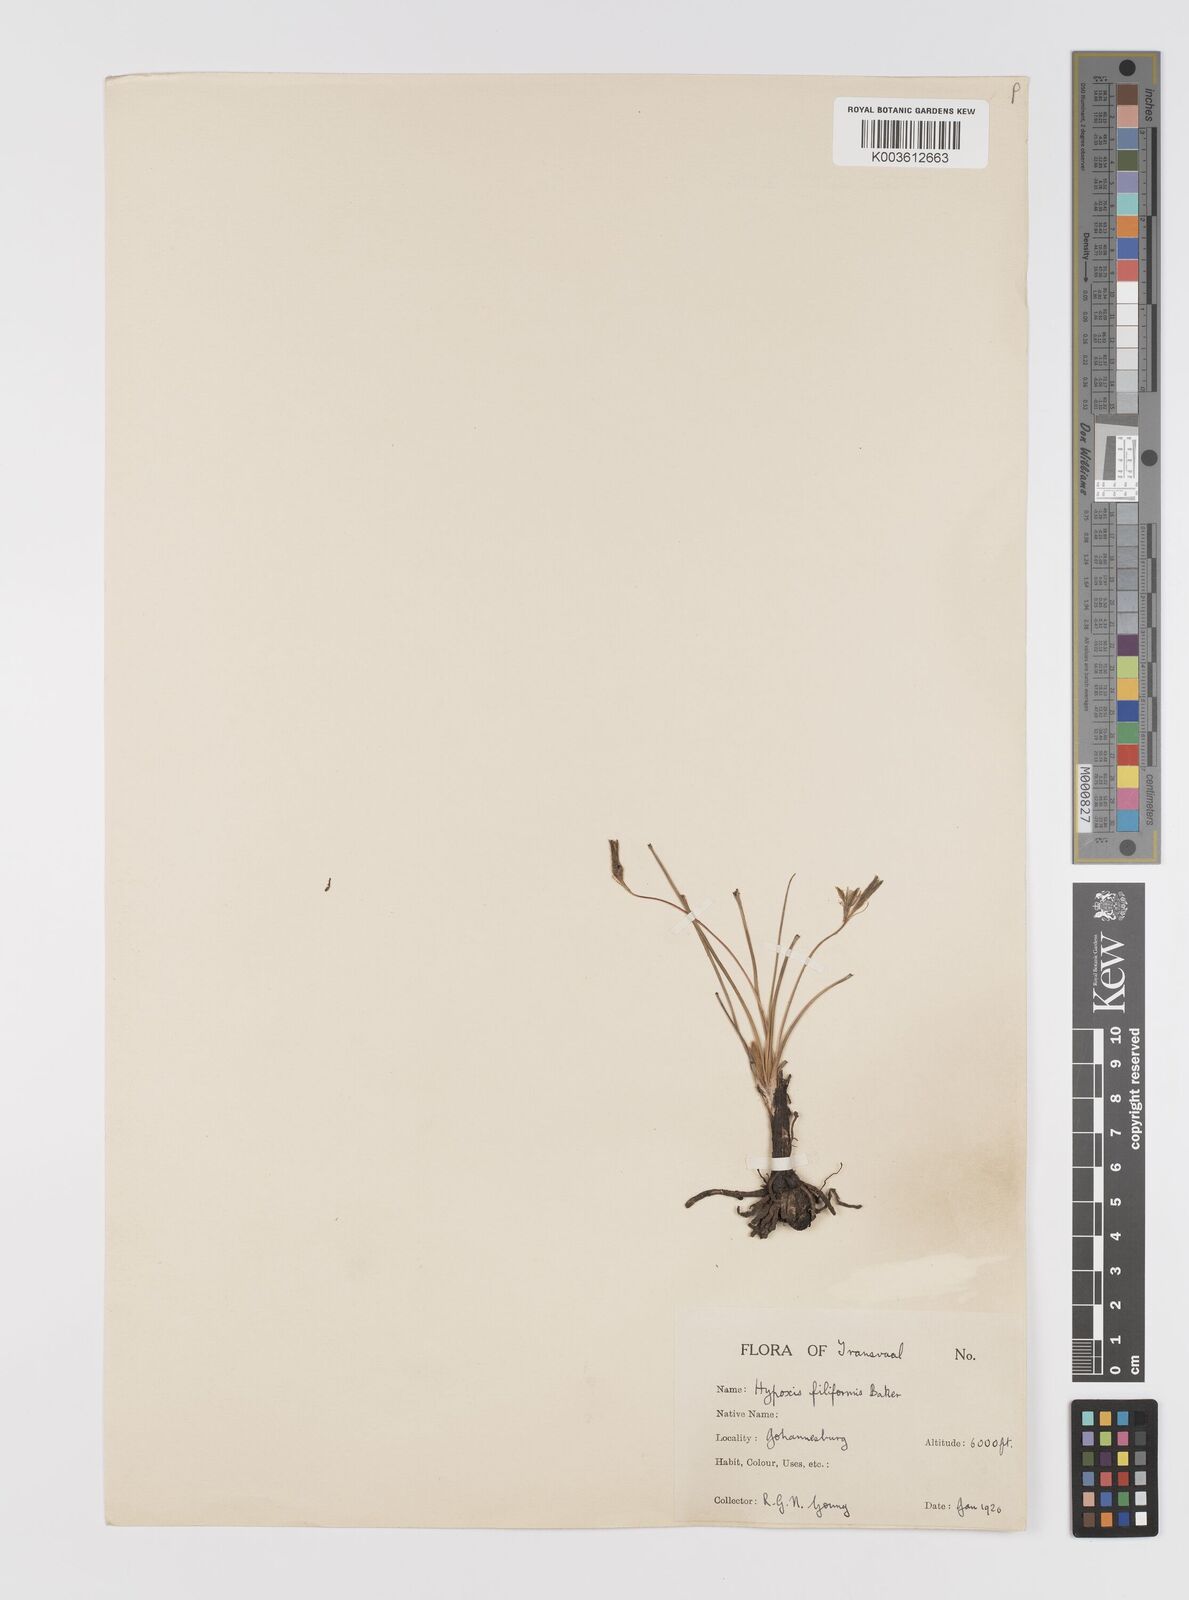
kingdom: Plantae
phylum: Tracheophyta
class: Liliopsida
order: Asparagales
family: Hypoxidaceae
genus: Hypoxis
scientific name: Hypoxis filiformis
